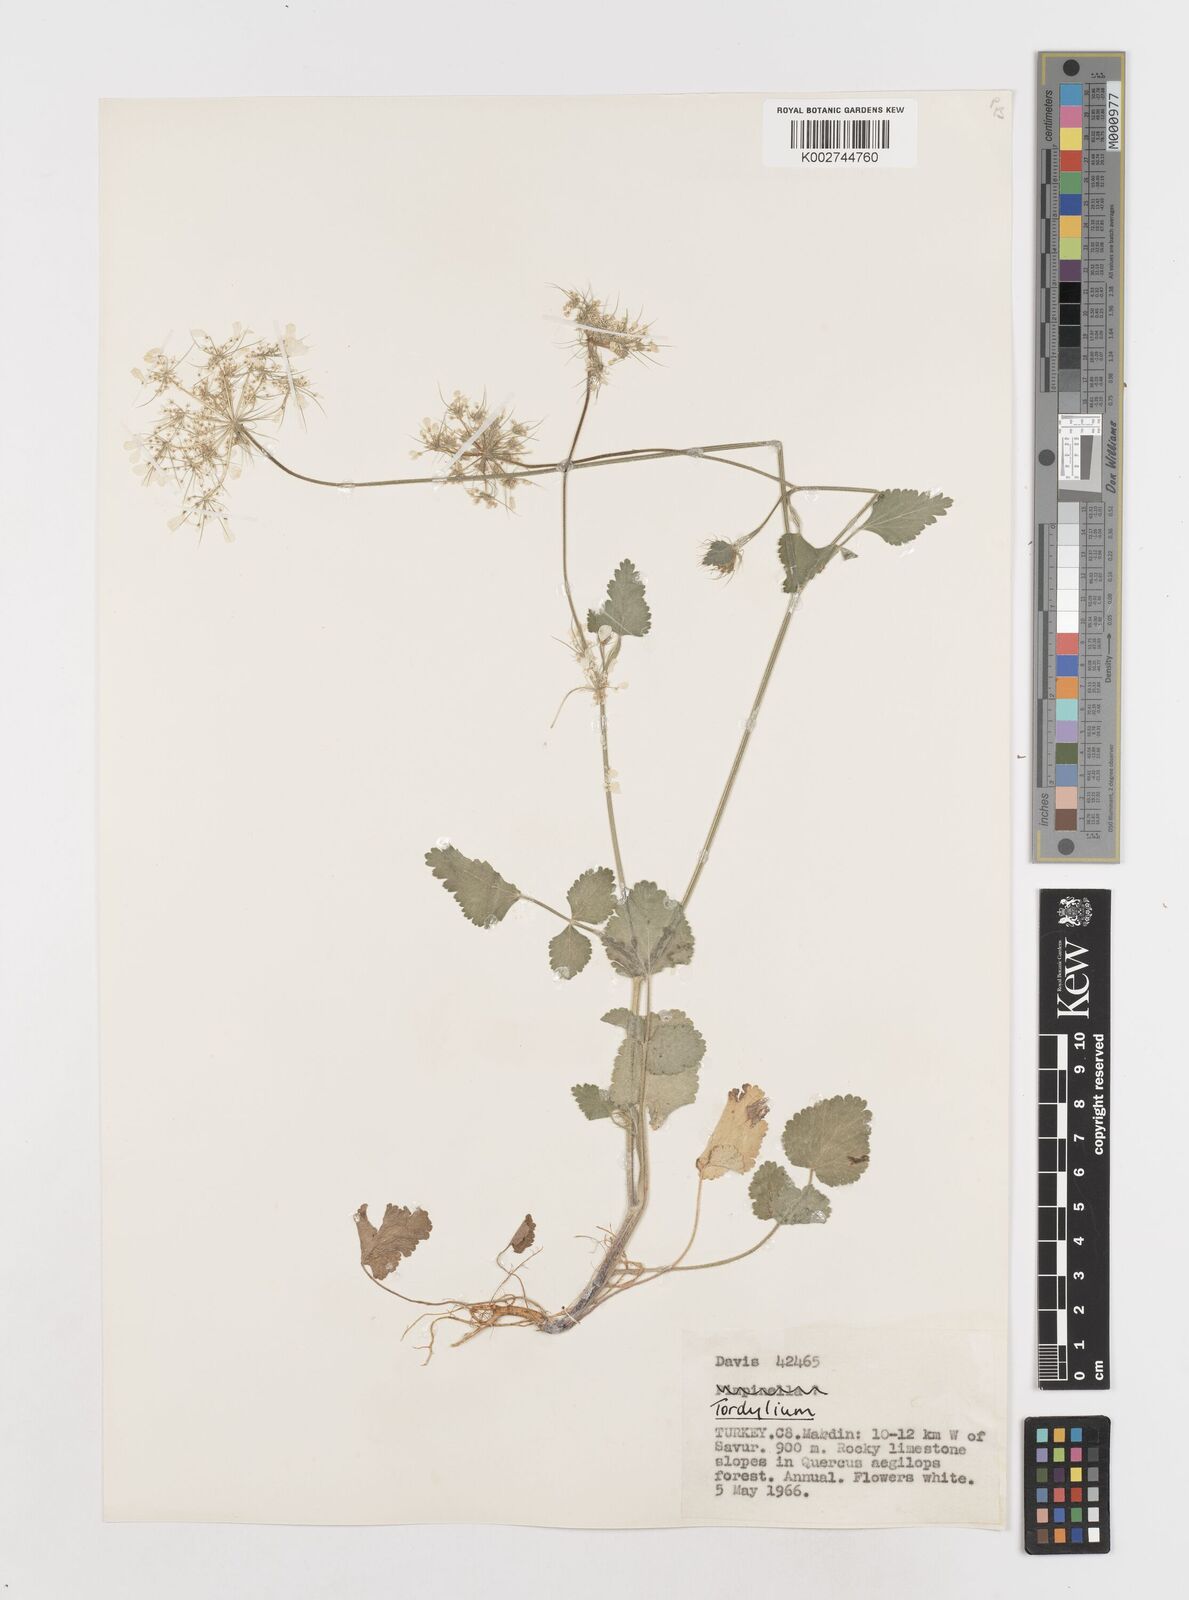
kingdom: Plantae
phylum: Tracheophyta
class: Magnoliopsida
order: Apiales
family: Apiaceae
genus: Ainsworthia
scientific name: Ainsworthia cordata
